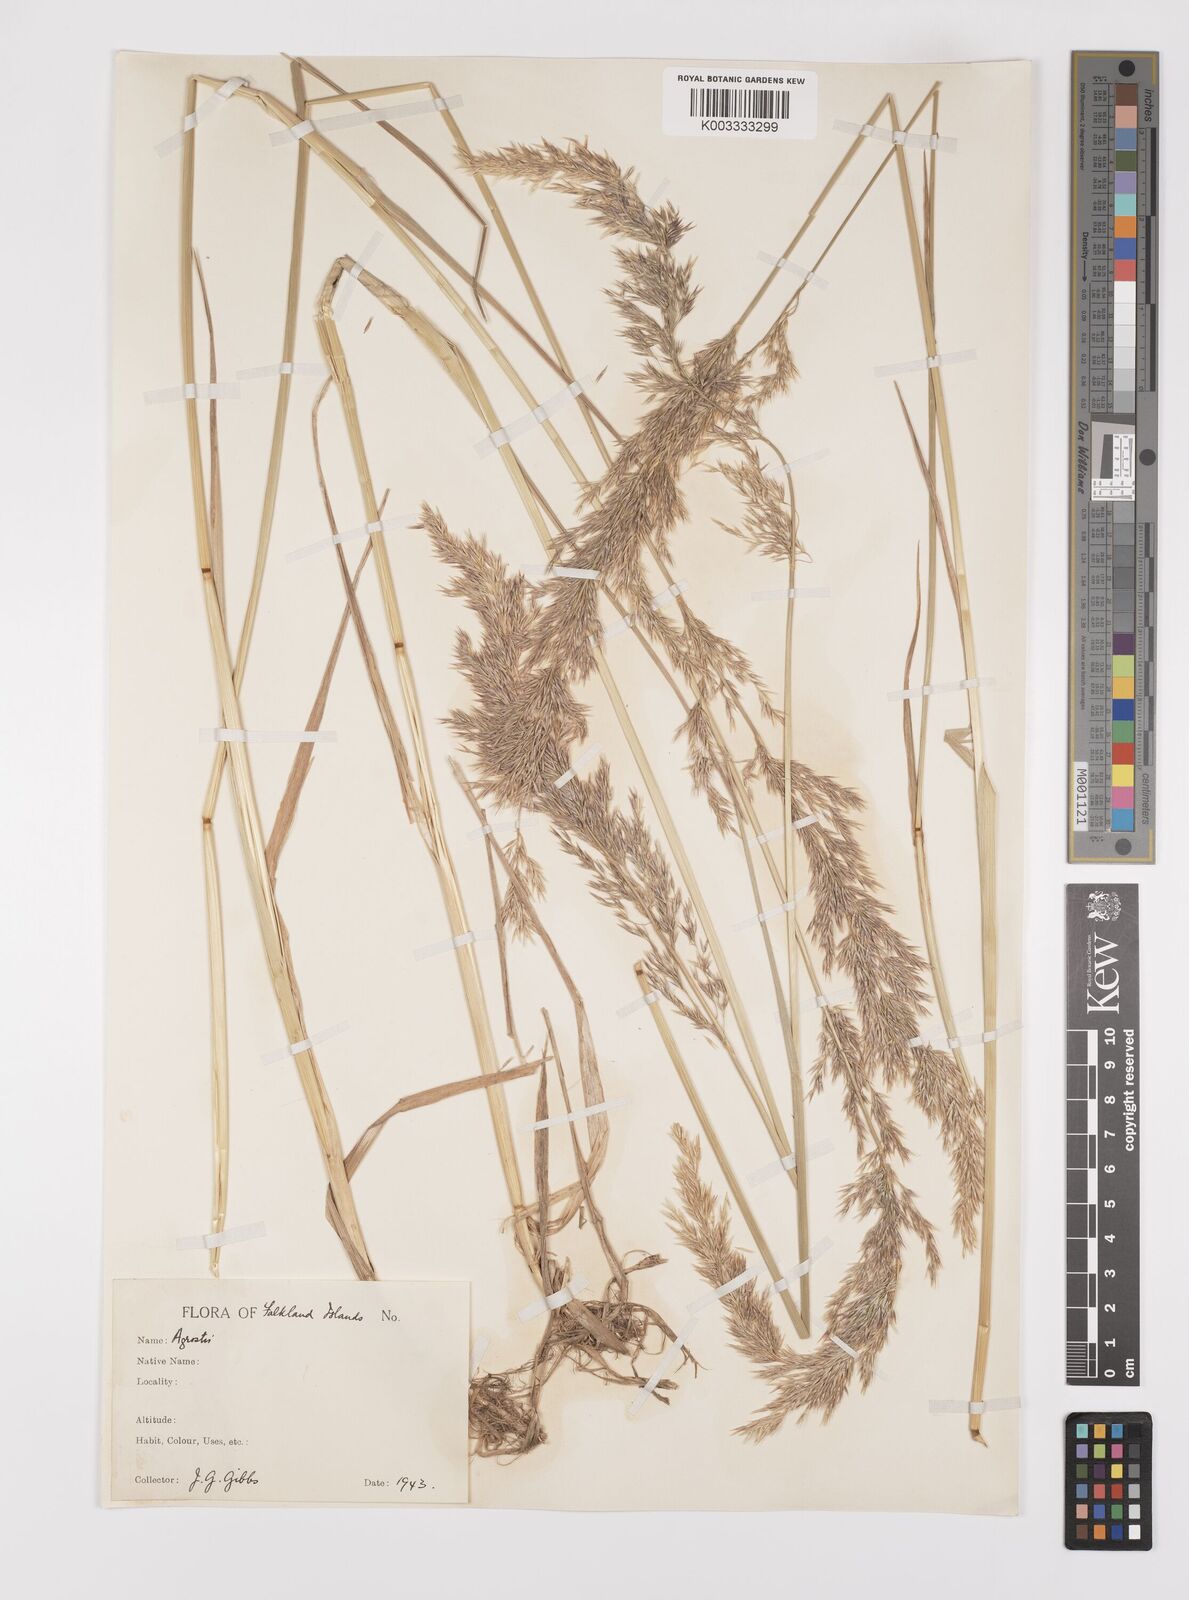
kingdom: Plantae
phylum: Tracheophyta
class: Liliopsida
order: Poales
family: Poaceae
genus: Polypogon
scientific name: Polypogon magellanicus
